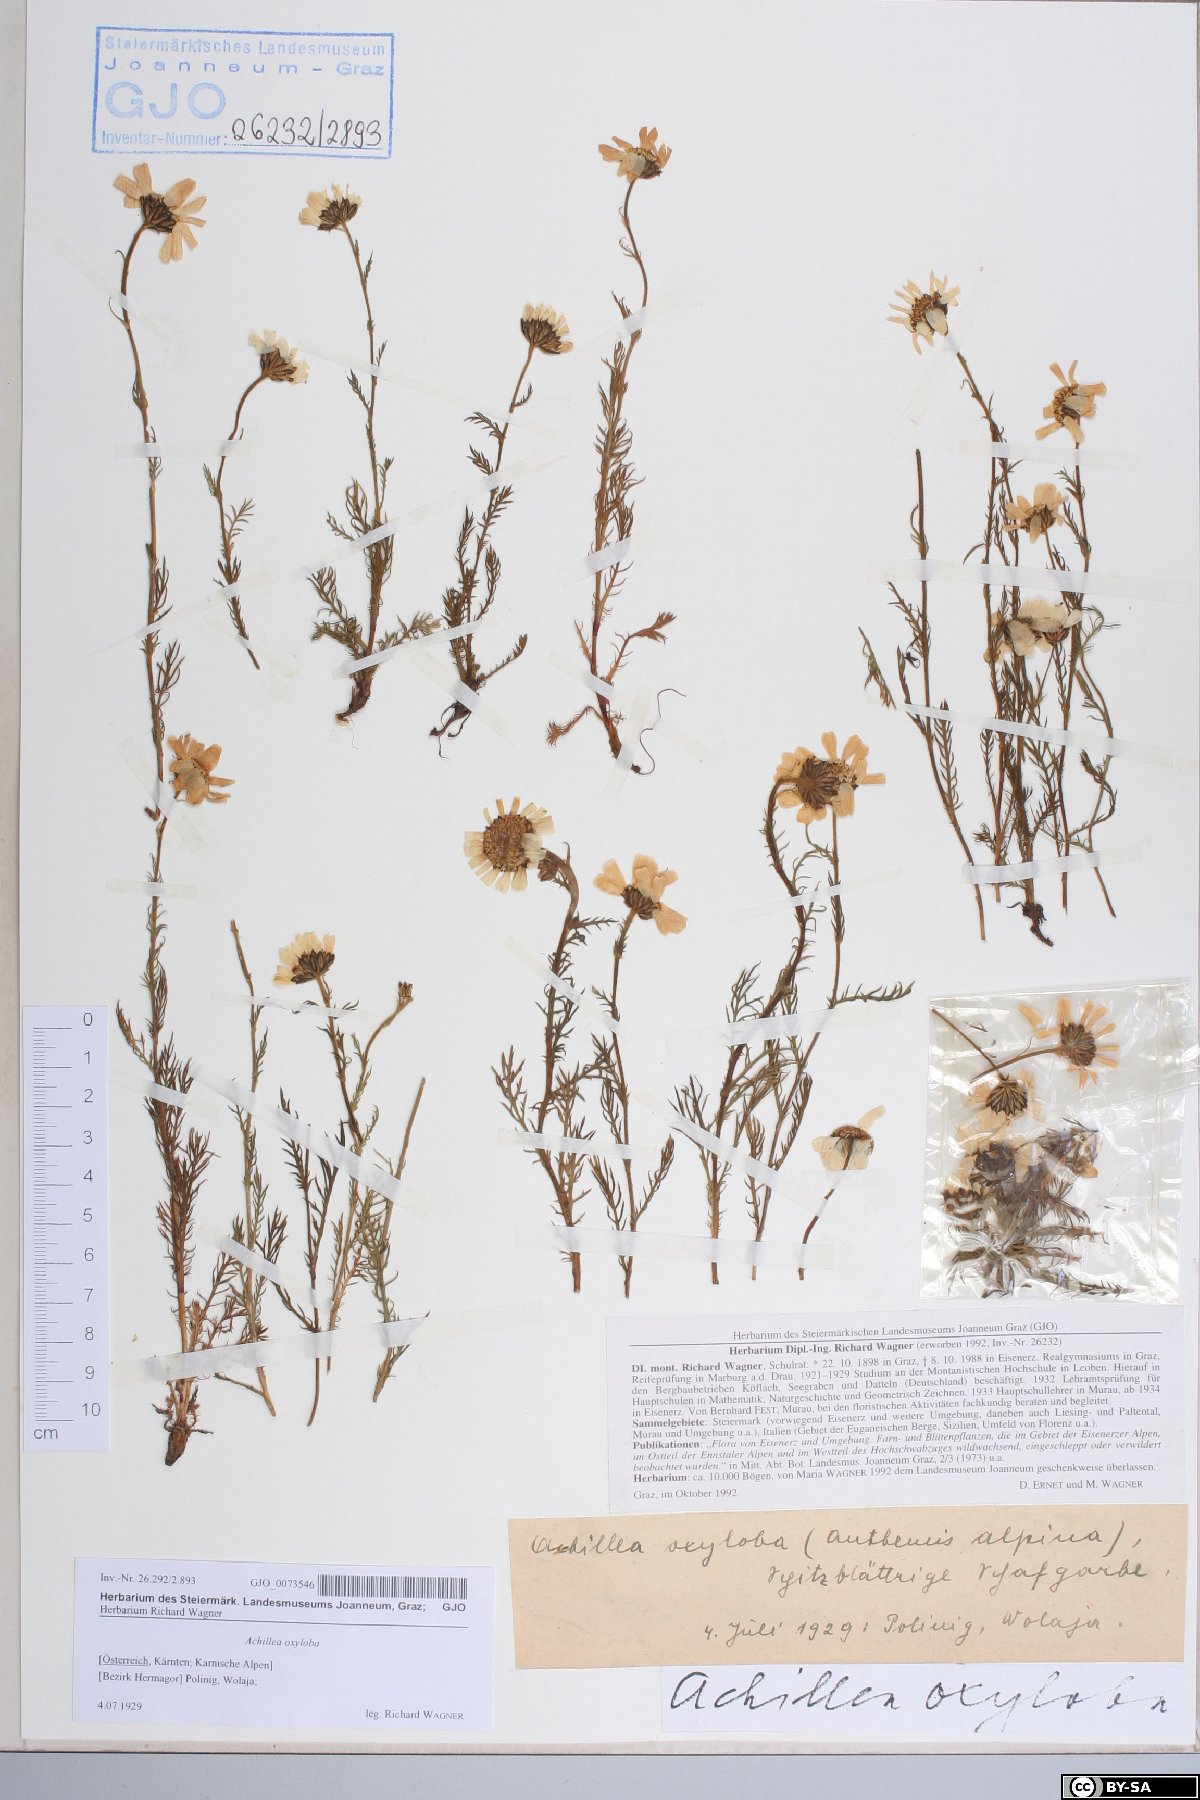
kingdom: Plantae
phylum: Tracheophyta
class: Magnoliopsida
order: Asterales
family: Asteraceae
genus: Achillea
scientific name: Achillea oxyloba
